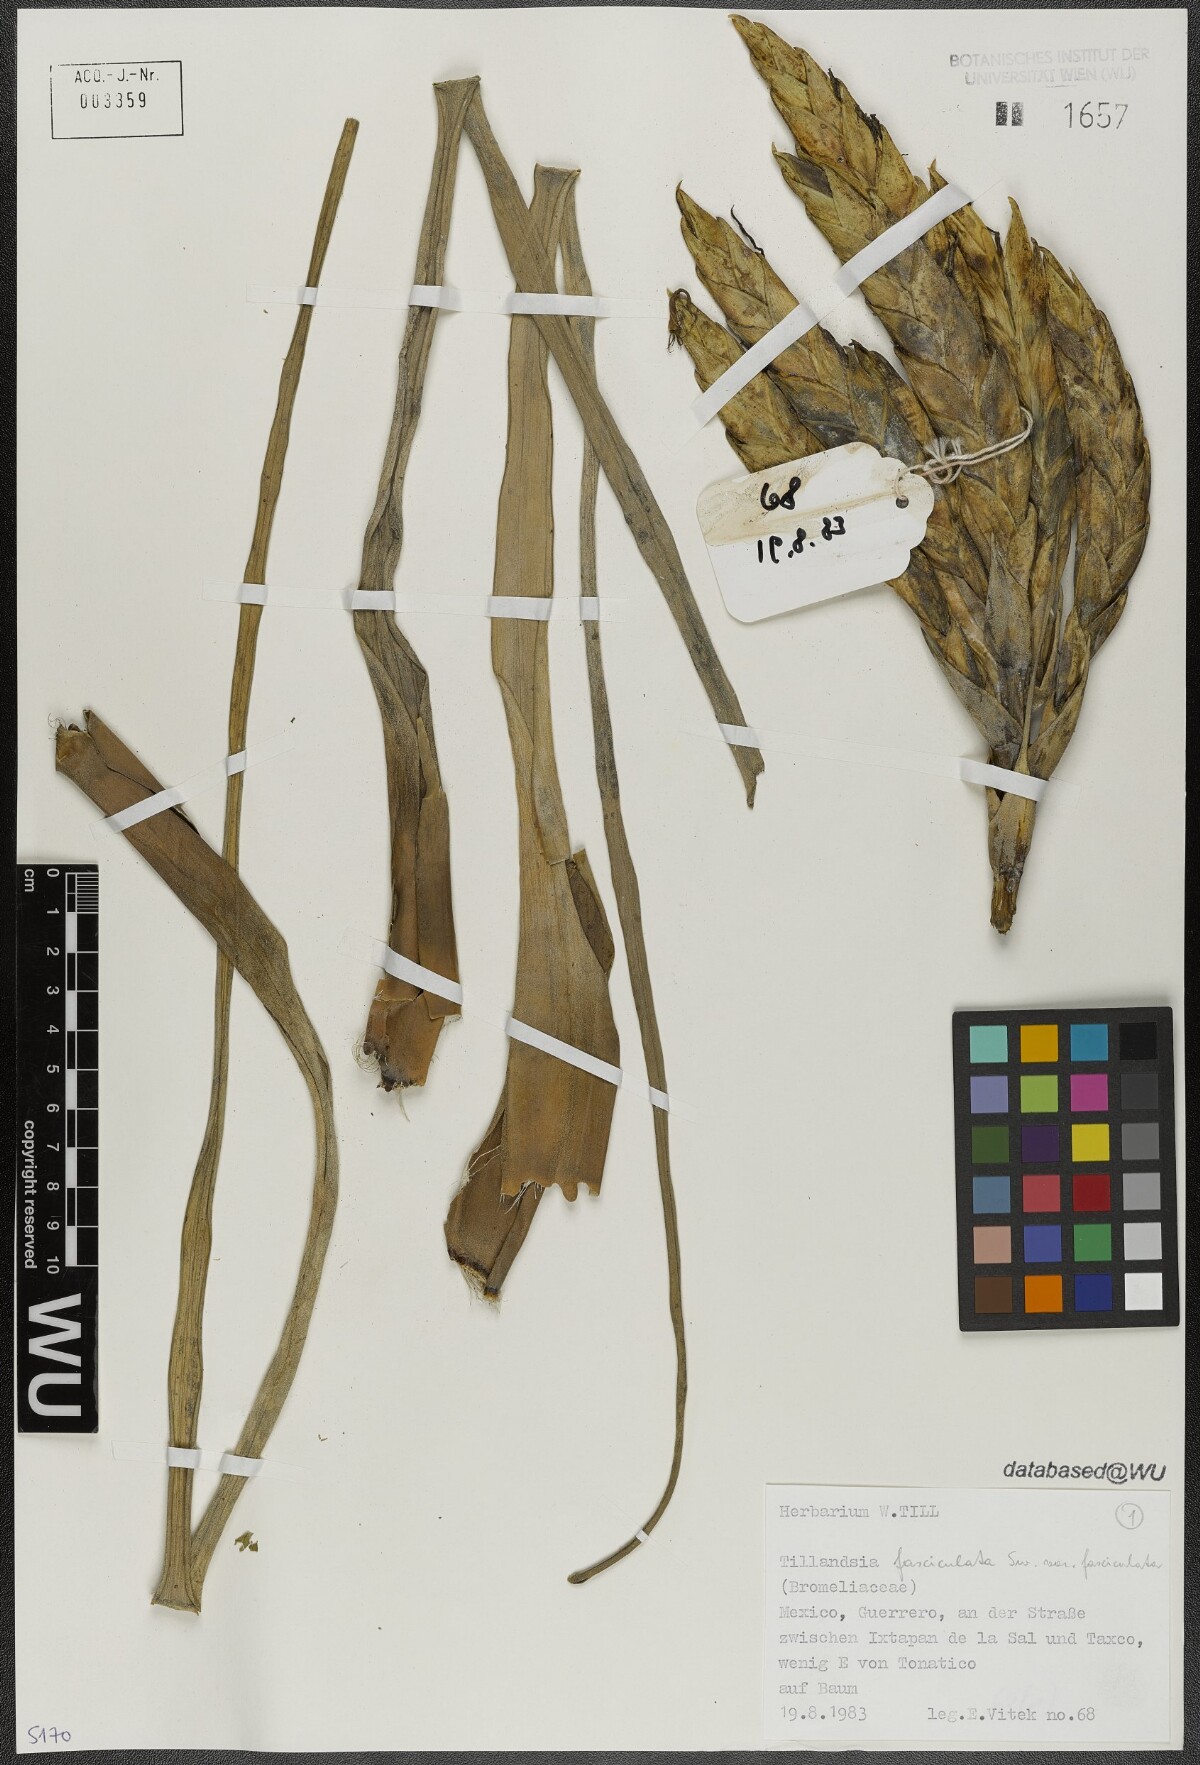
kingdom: Plantae
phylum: Tracheophyta
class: Liliopsida
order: Poales
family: Bromeliaceae
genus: Tillandsia
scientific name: Tillandsia fasciculata
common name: Giant airplant
